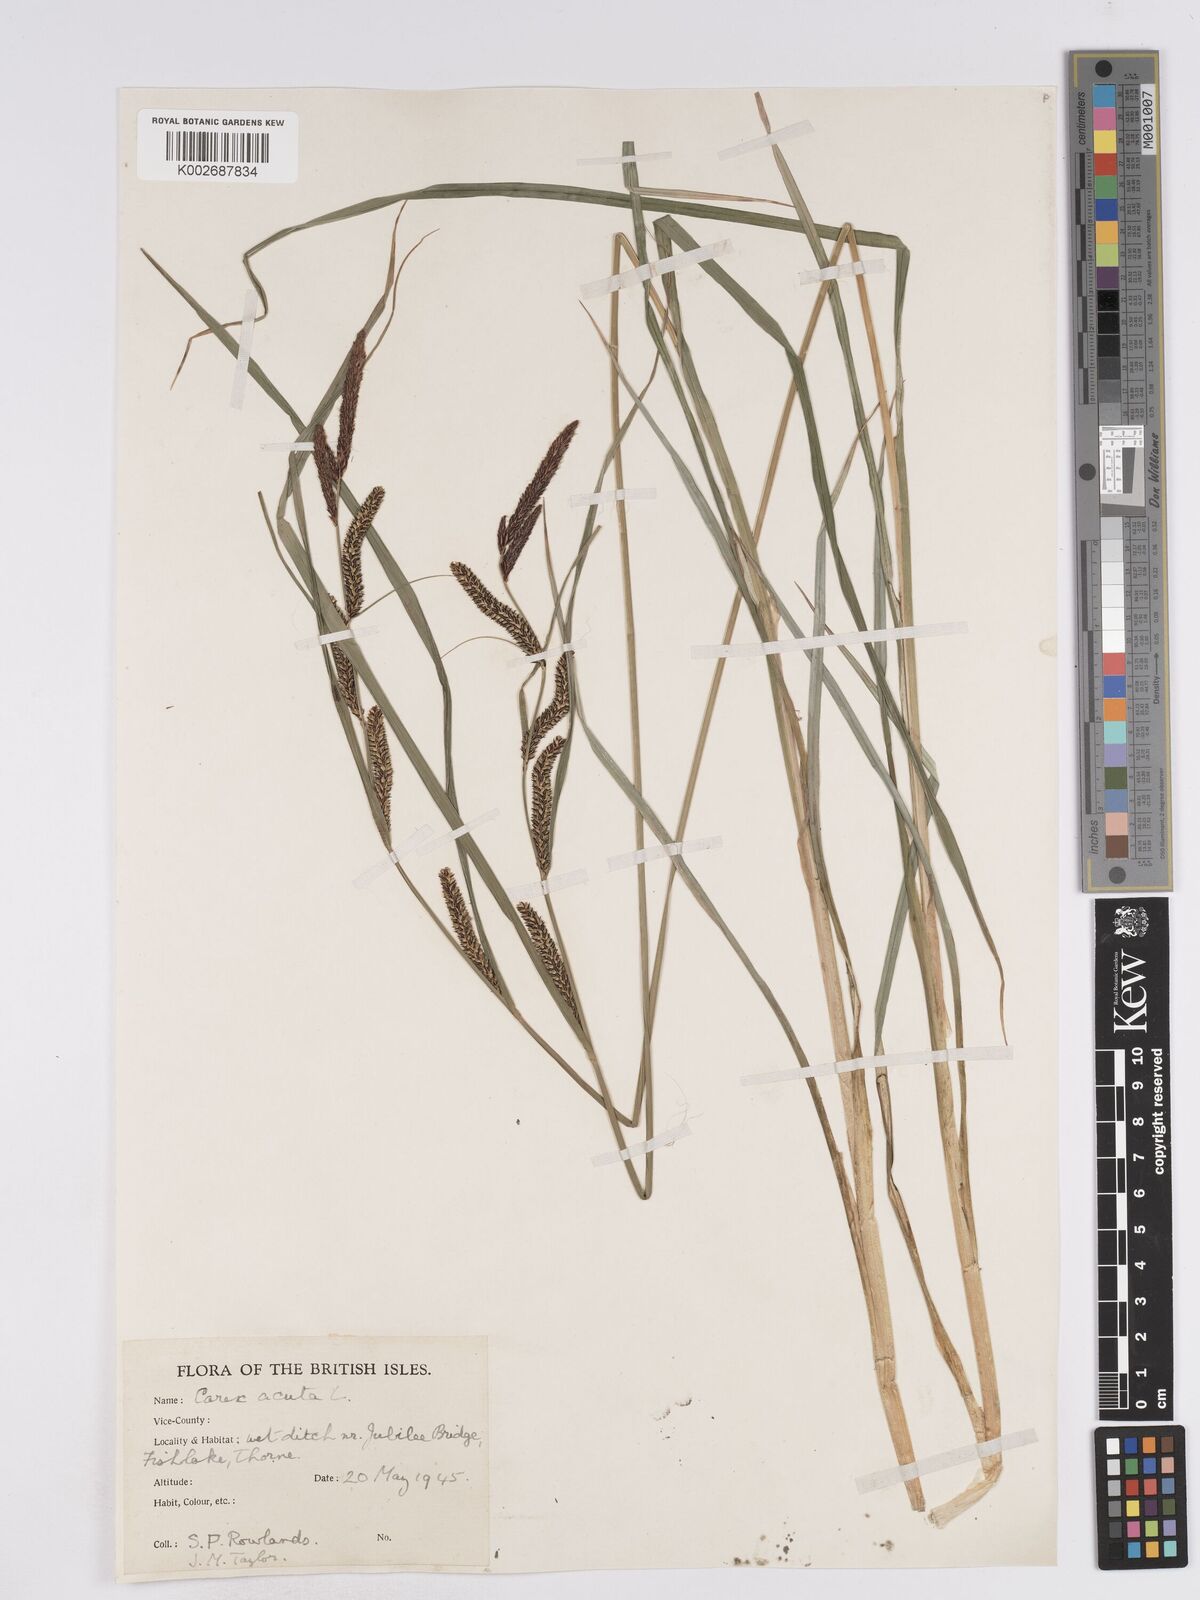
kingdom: Plantae
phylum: Tracheophyta
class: Liliopsida
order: Poales
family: Cyperaceae
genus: Carex
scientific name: Carex acuta
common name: Slender tufted-sedge
